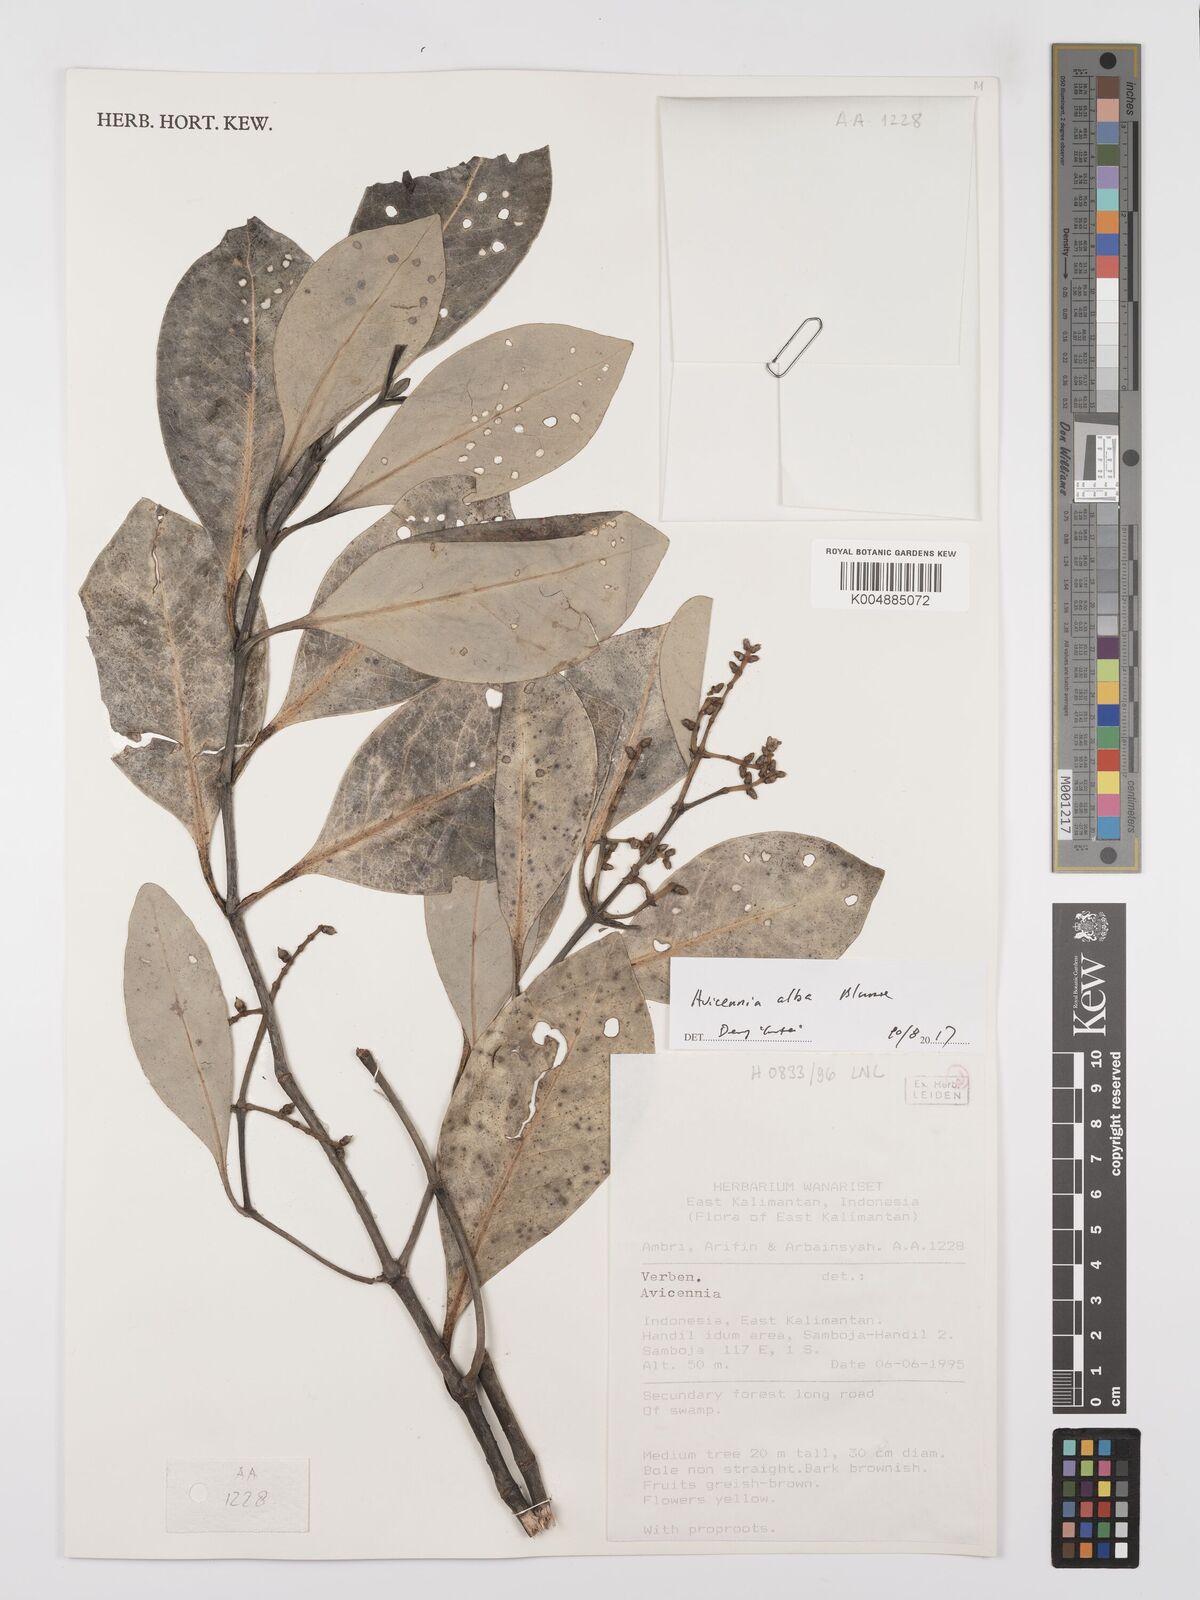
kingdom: Plantae
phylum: Tracheophyta
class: Magnoliopsida
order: Lamiales
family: Acanthaceae
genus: Avicennia
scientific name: Avicennia alba
